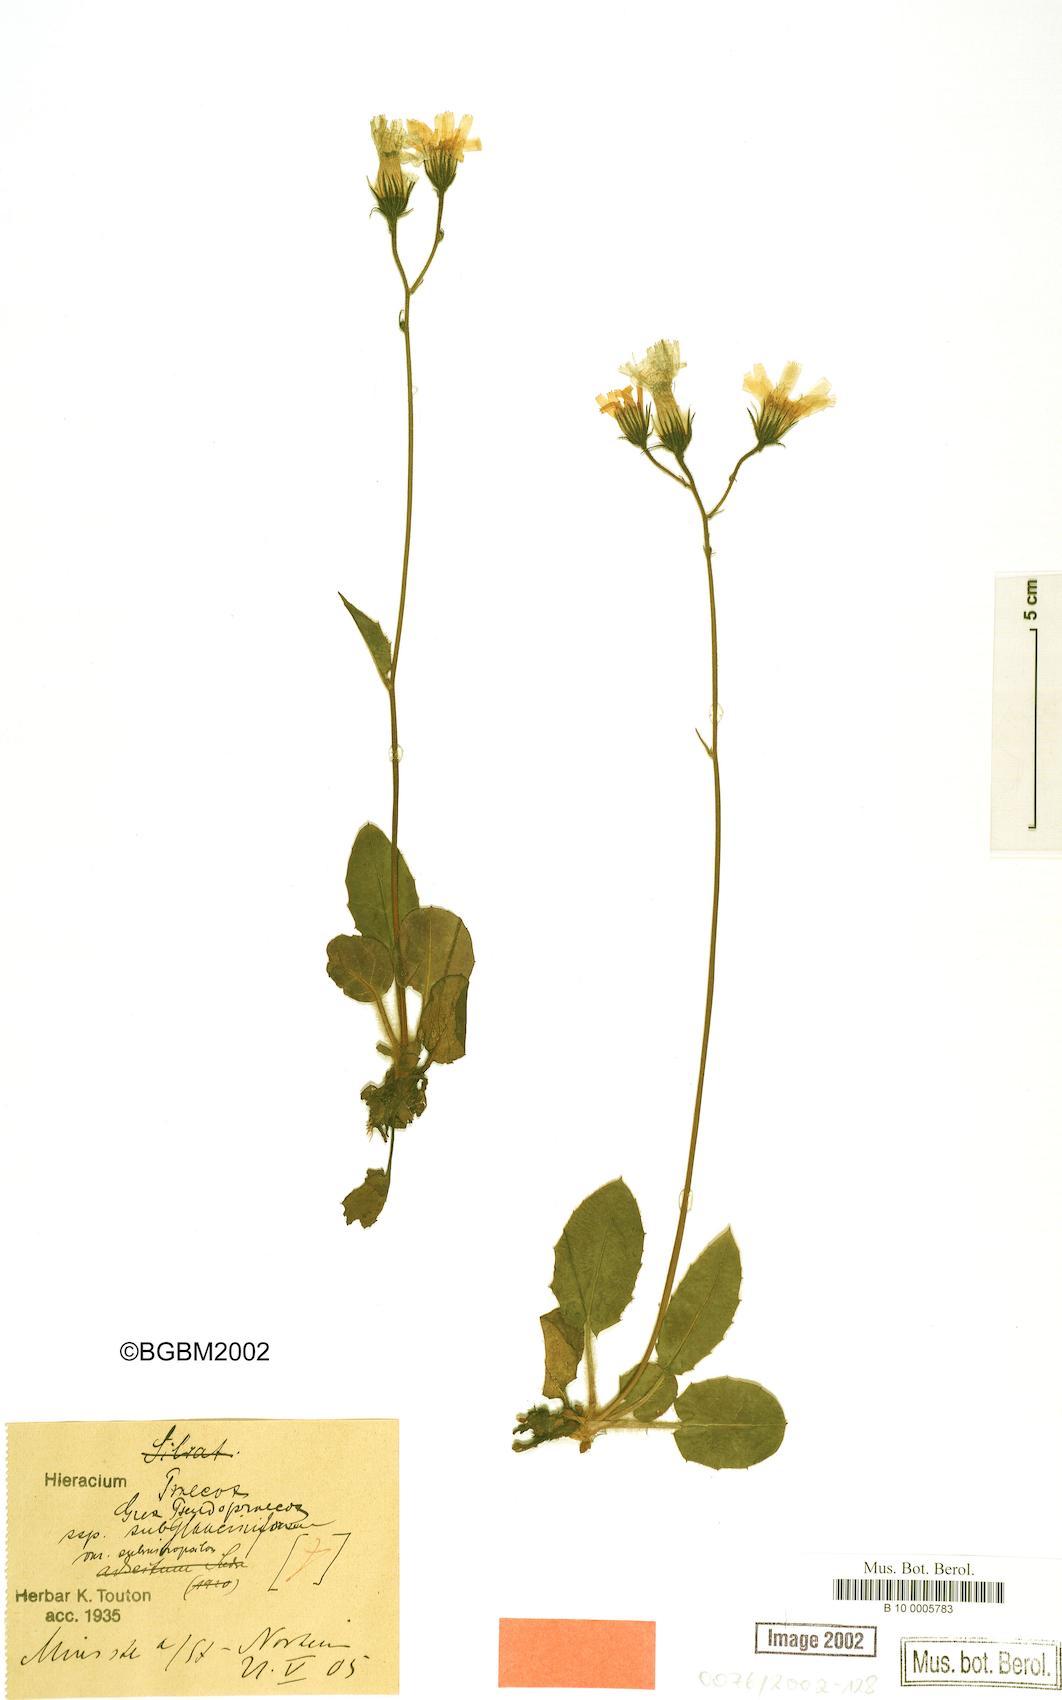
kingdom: Plantae
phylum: Tracheophyta
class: Magnoliopsida
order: Asterales
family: Asteraceae
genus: Hieracium
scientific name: Hieracium praecox
